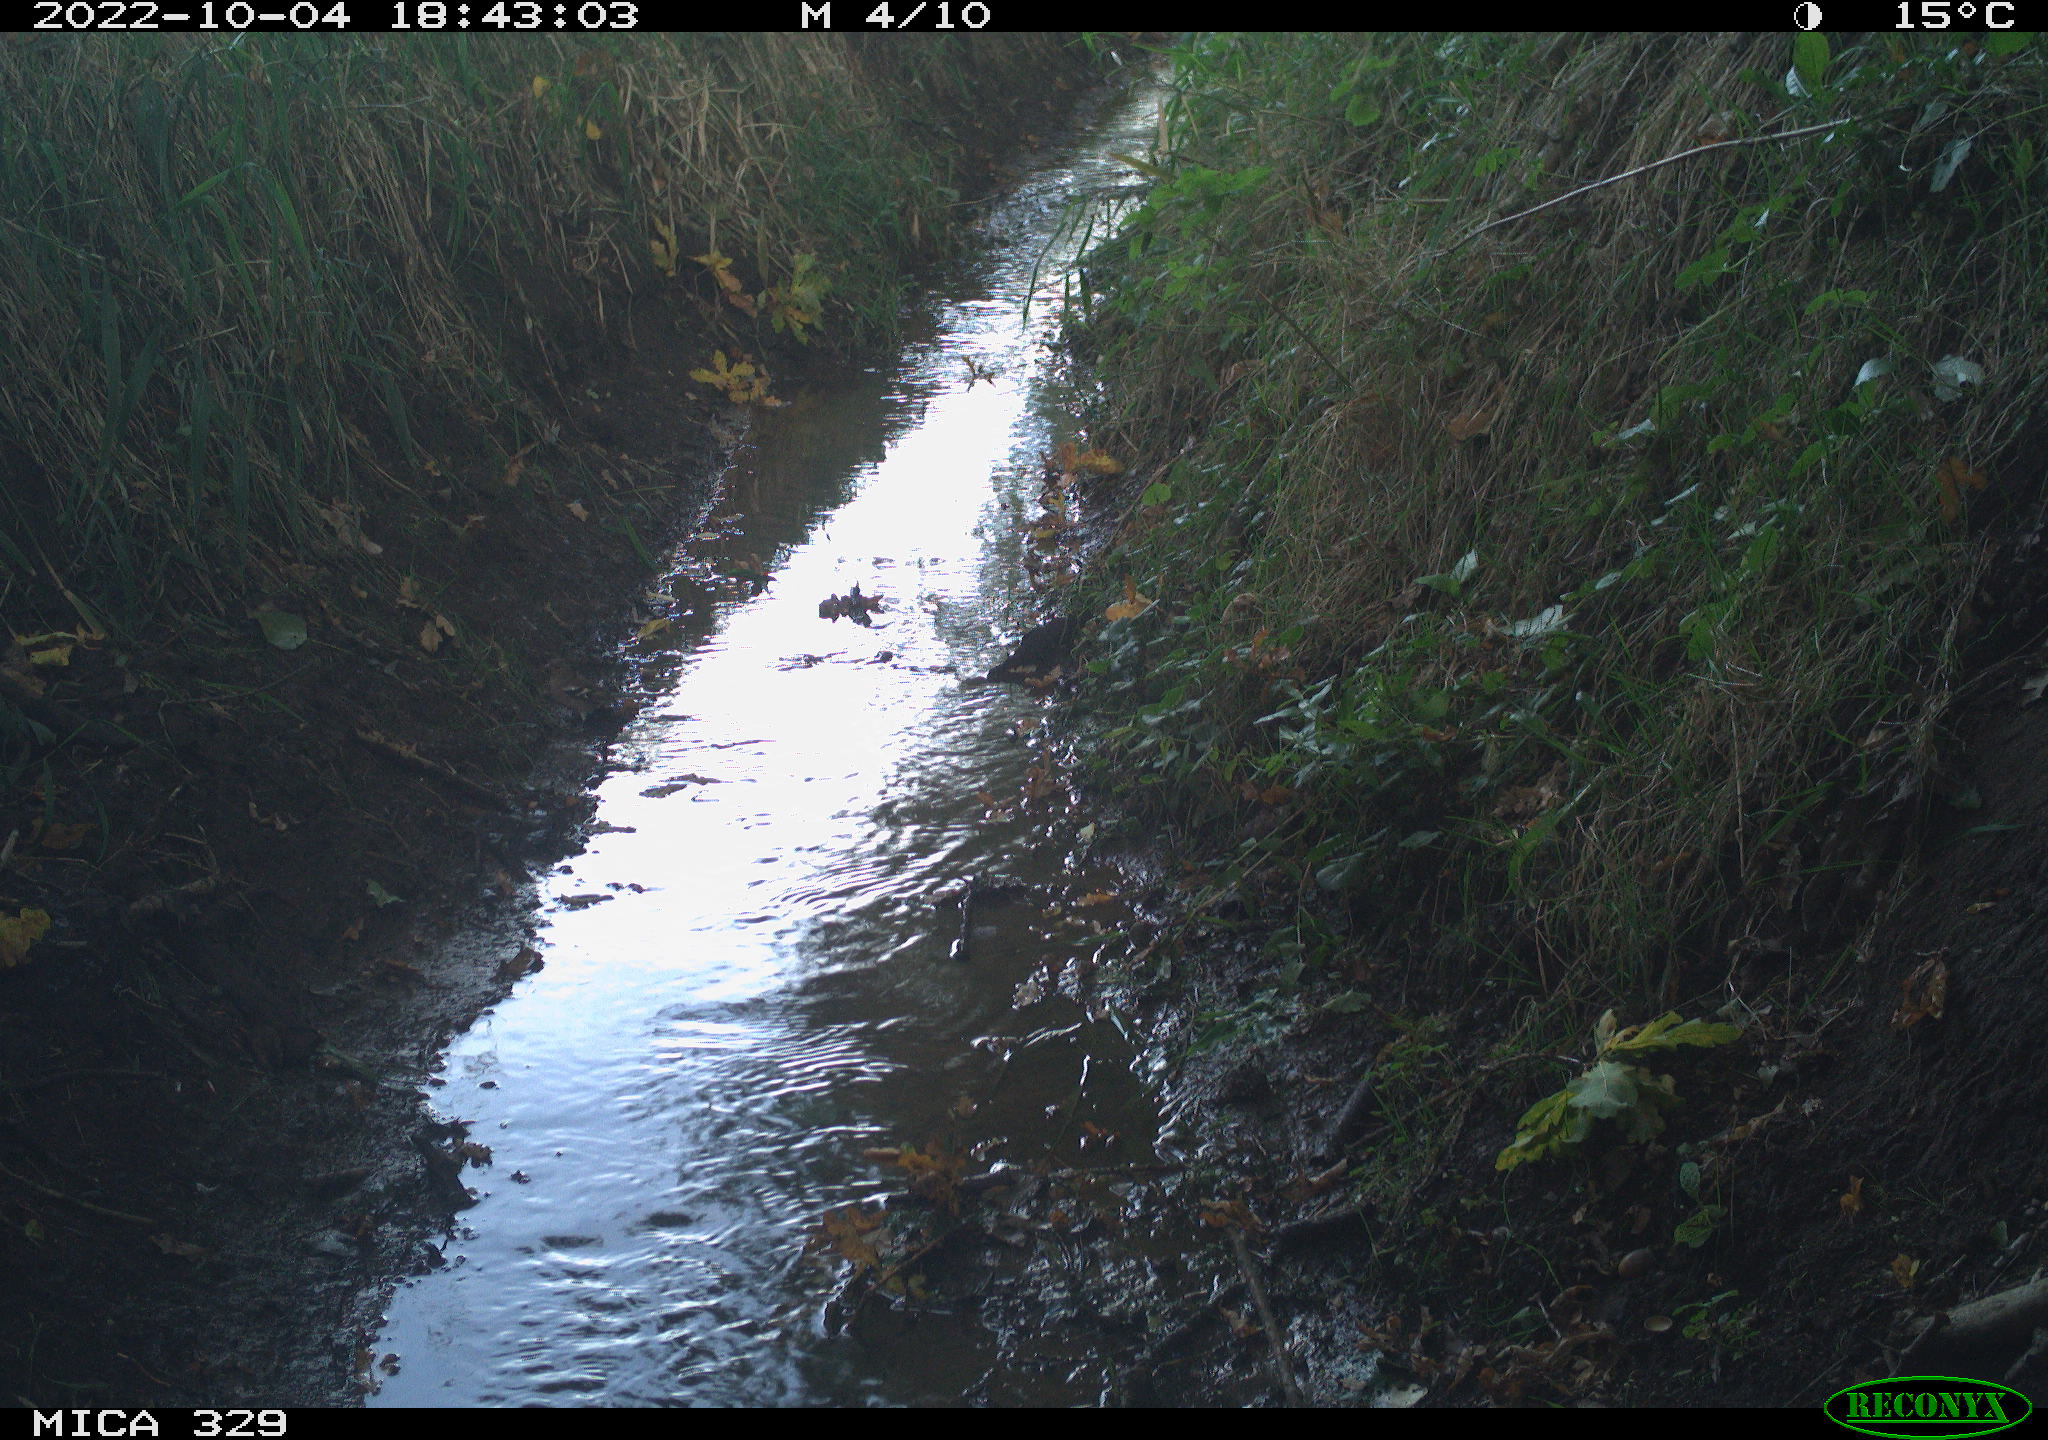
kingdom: Animalia
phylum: Chordata
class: Aves
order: Passeriformes
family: Fringillidae
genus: Fringilla
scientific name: Fringilla coelebs
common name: Common chaffinch
